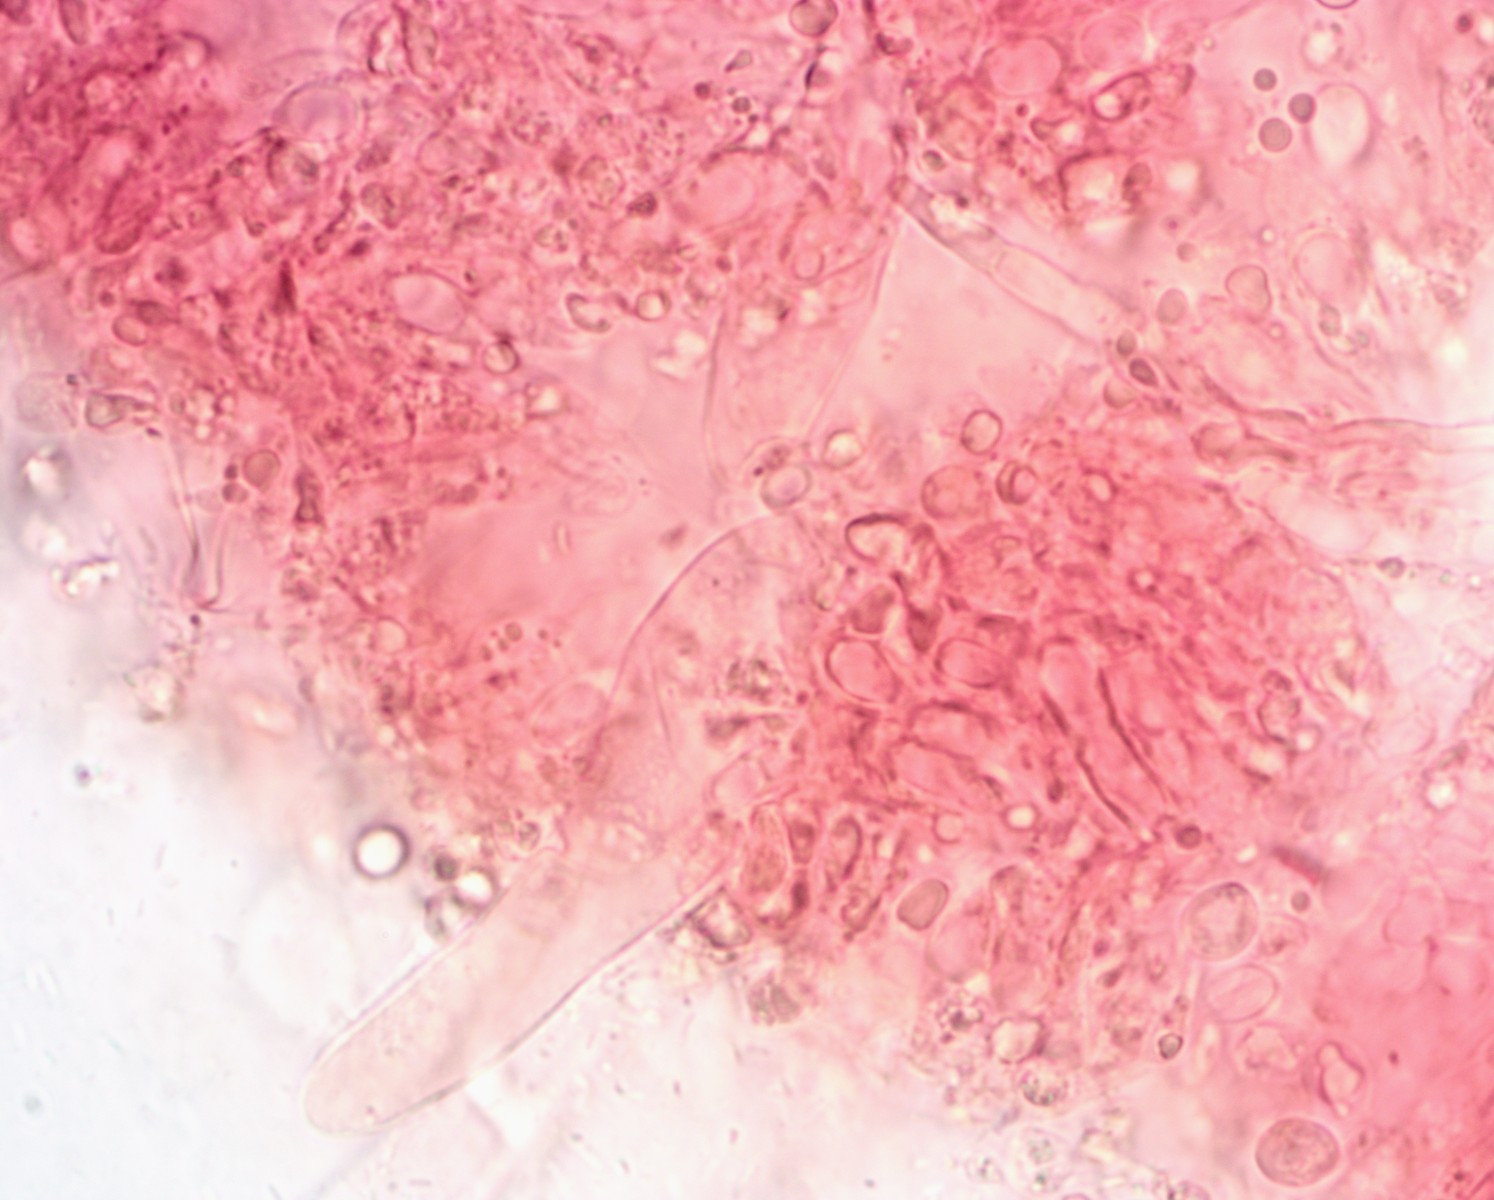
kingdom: Fungi
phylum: Basidiomycota
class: Agaricomycetes
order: Agaricales
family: Mycenaceae
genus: Atheniella
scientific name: Atheniella flavoalba
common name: gulhvid huesvamp
